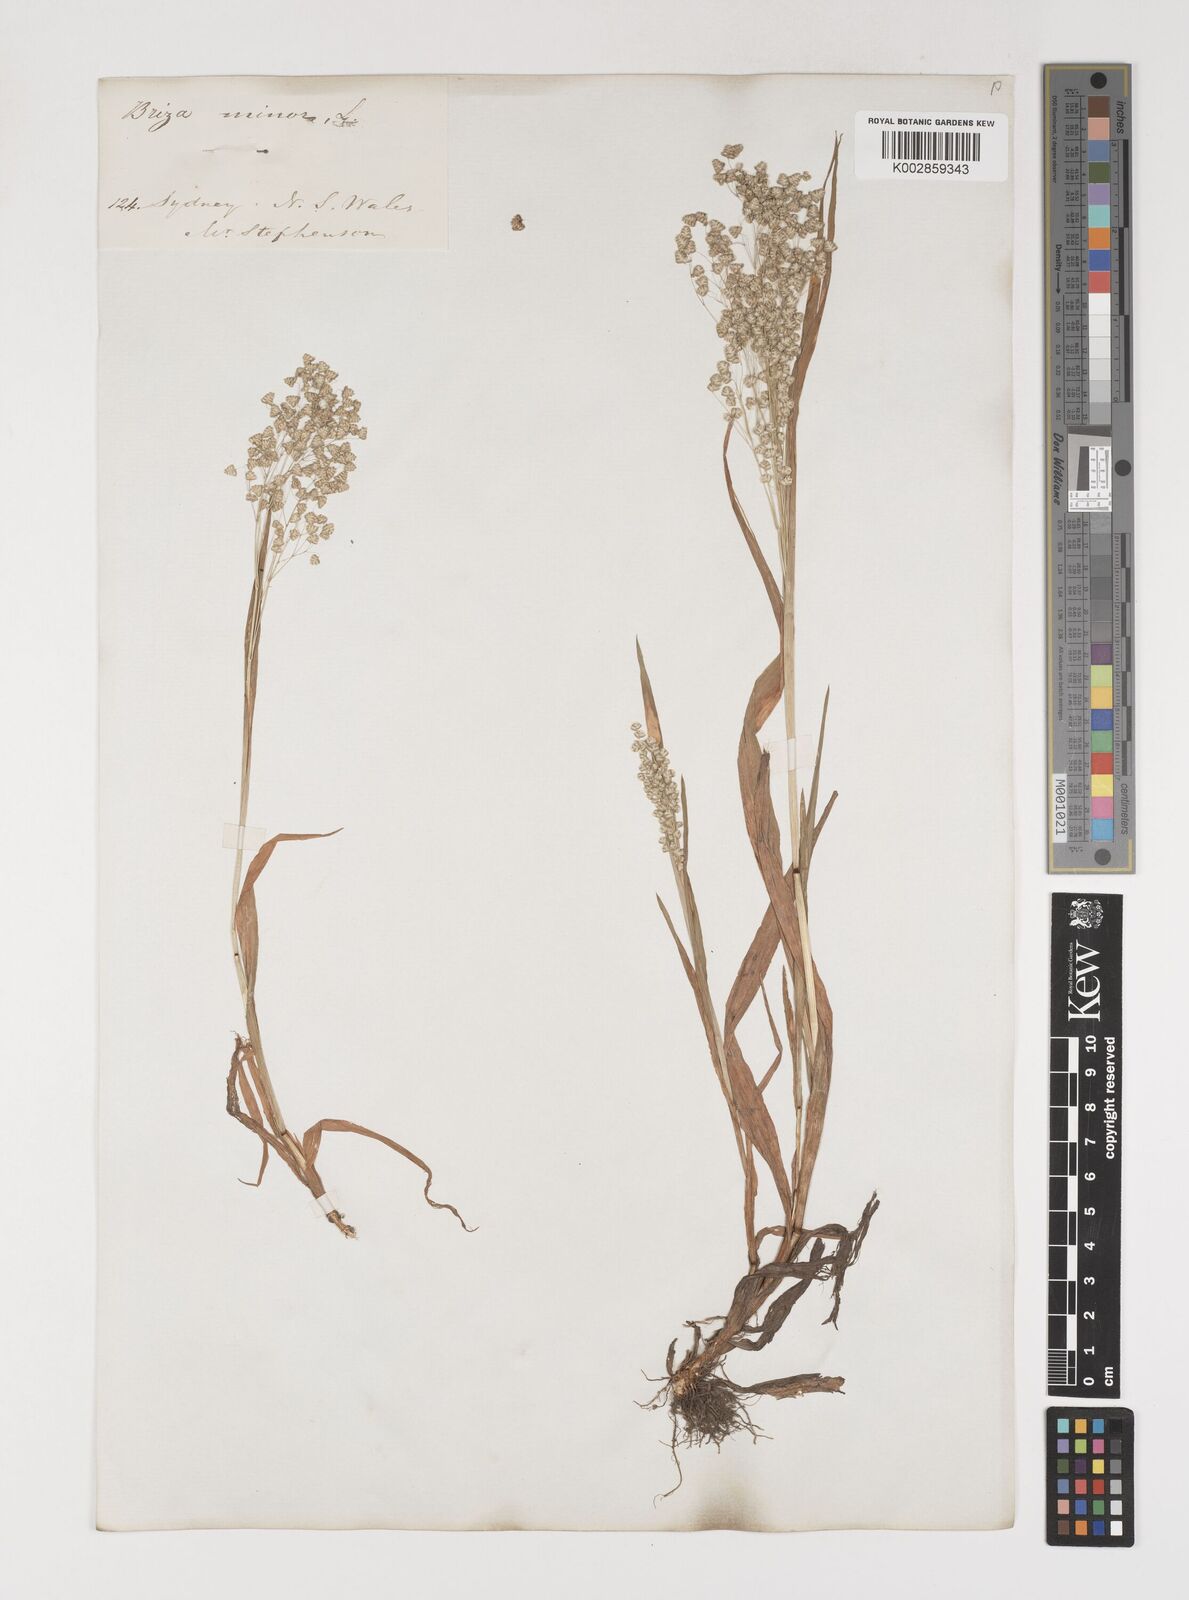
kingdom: Plantae
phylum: Tracheophyta
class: Liliopsida
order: Poales
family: Poaceae
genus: Briza
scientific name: Briza minor
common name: Lesser quaking-grass
